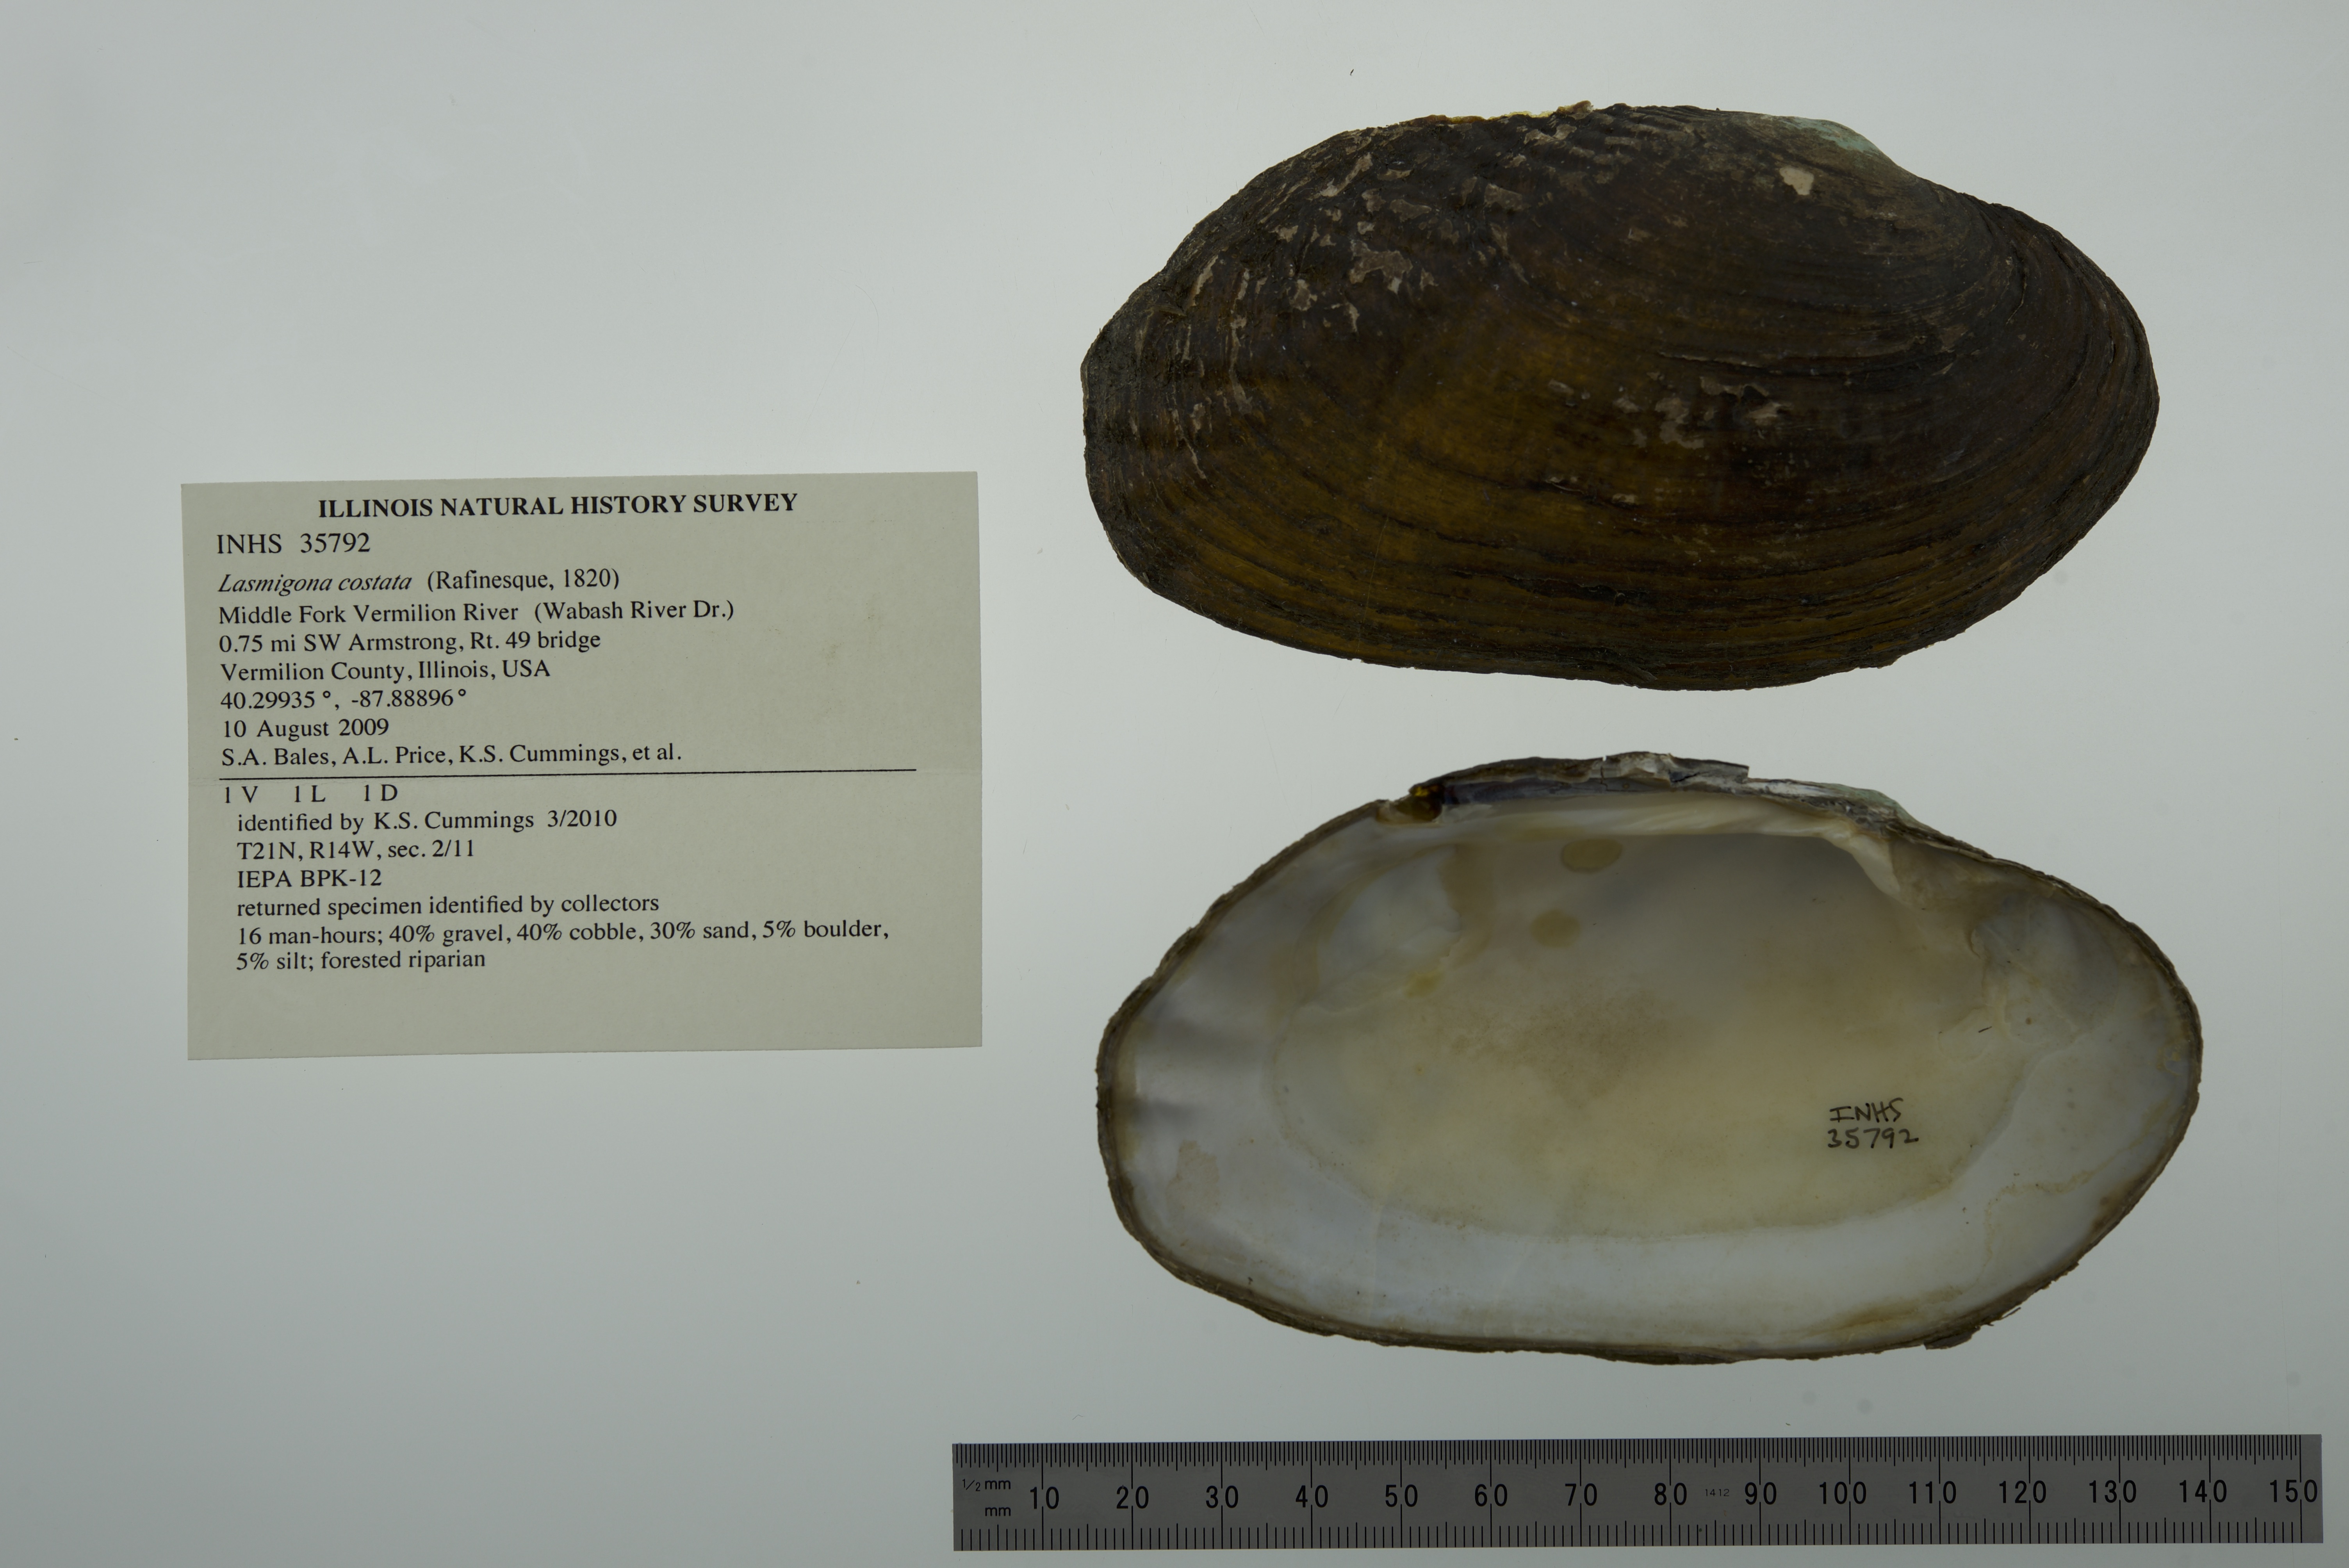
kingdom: Animalia
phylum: Mollusca
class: Bivalvia
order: Unionida
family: Unionidae
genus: Lasmigona
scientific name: Lasmigona costata
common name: Flutedshell
